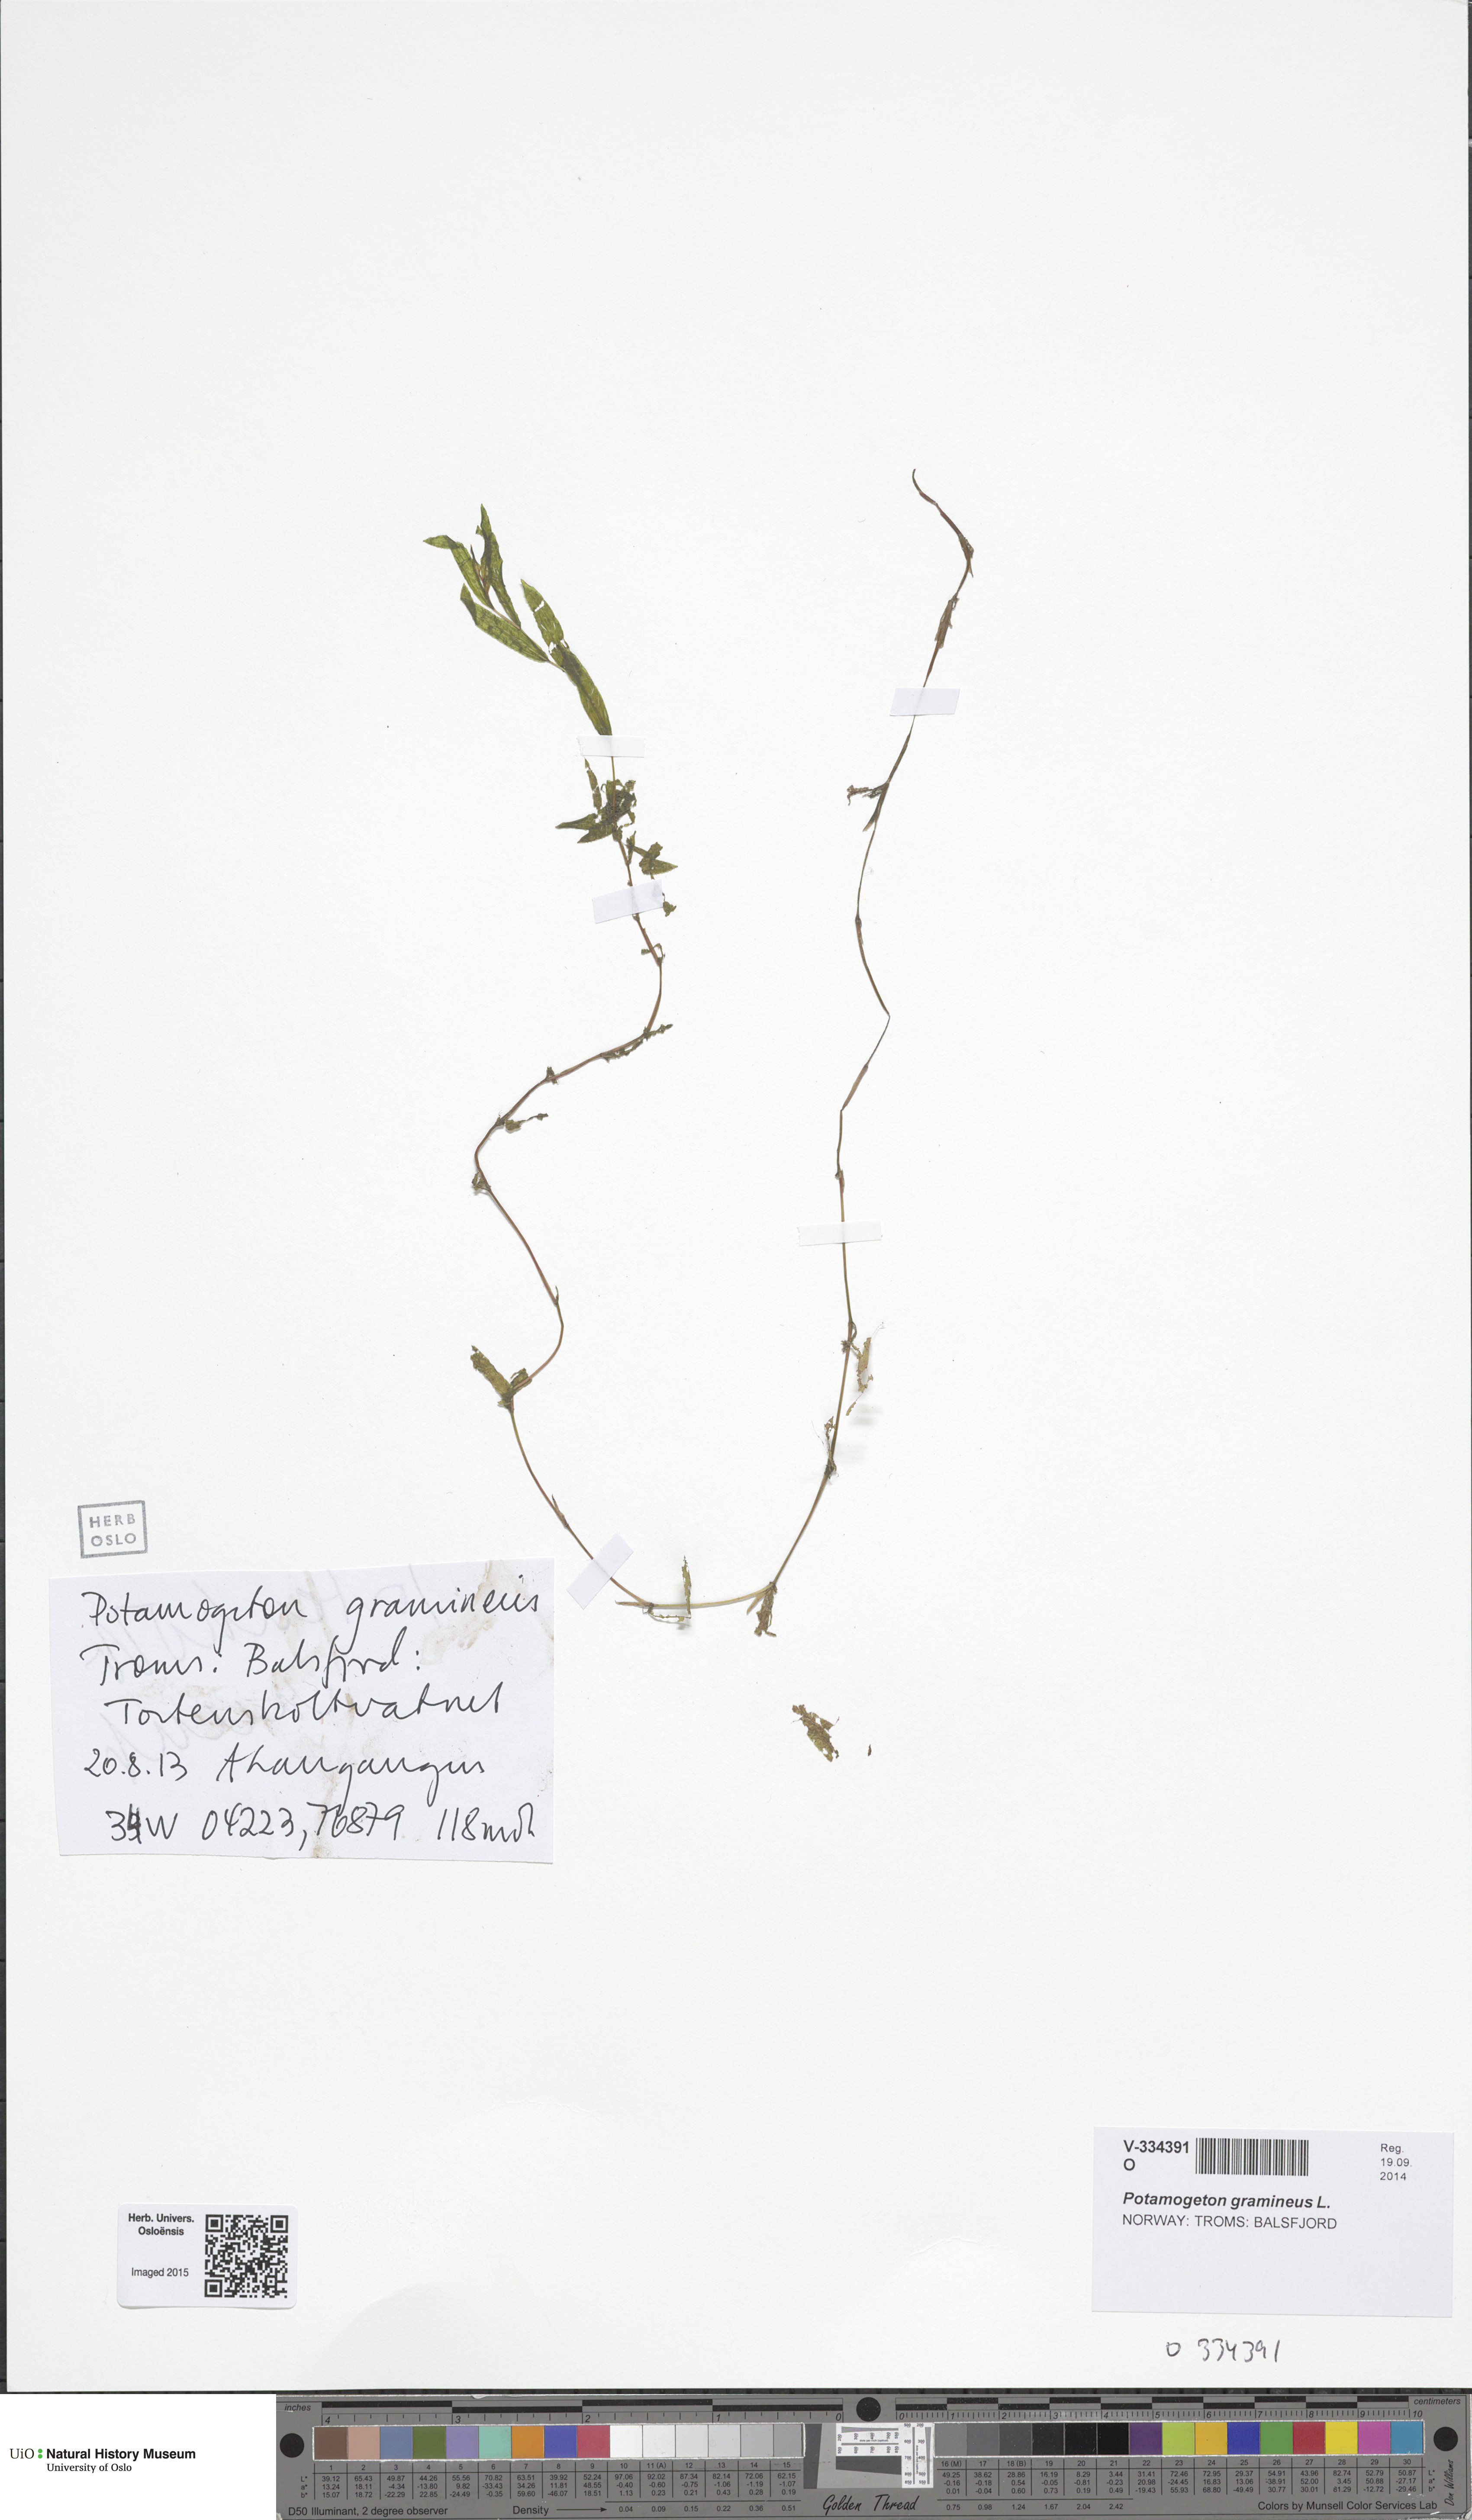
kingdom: Plantae
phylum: Tracheophyta
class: Liliopsida
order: Alismatales
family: Potamogetonaceae
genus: Potamogeton
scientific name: Potamogeton gramineus
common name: Various-leaved pondweed
